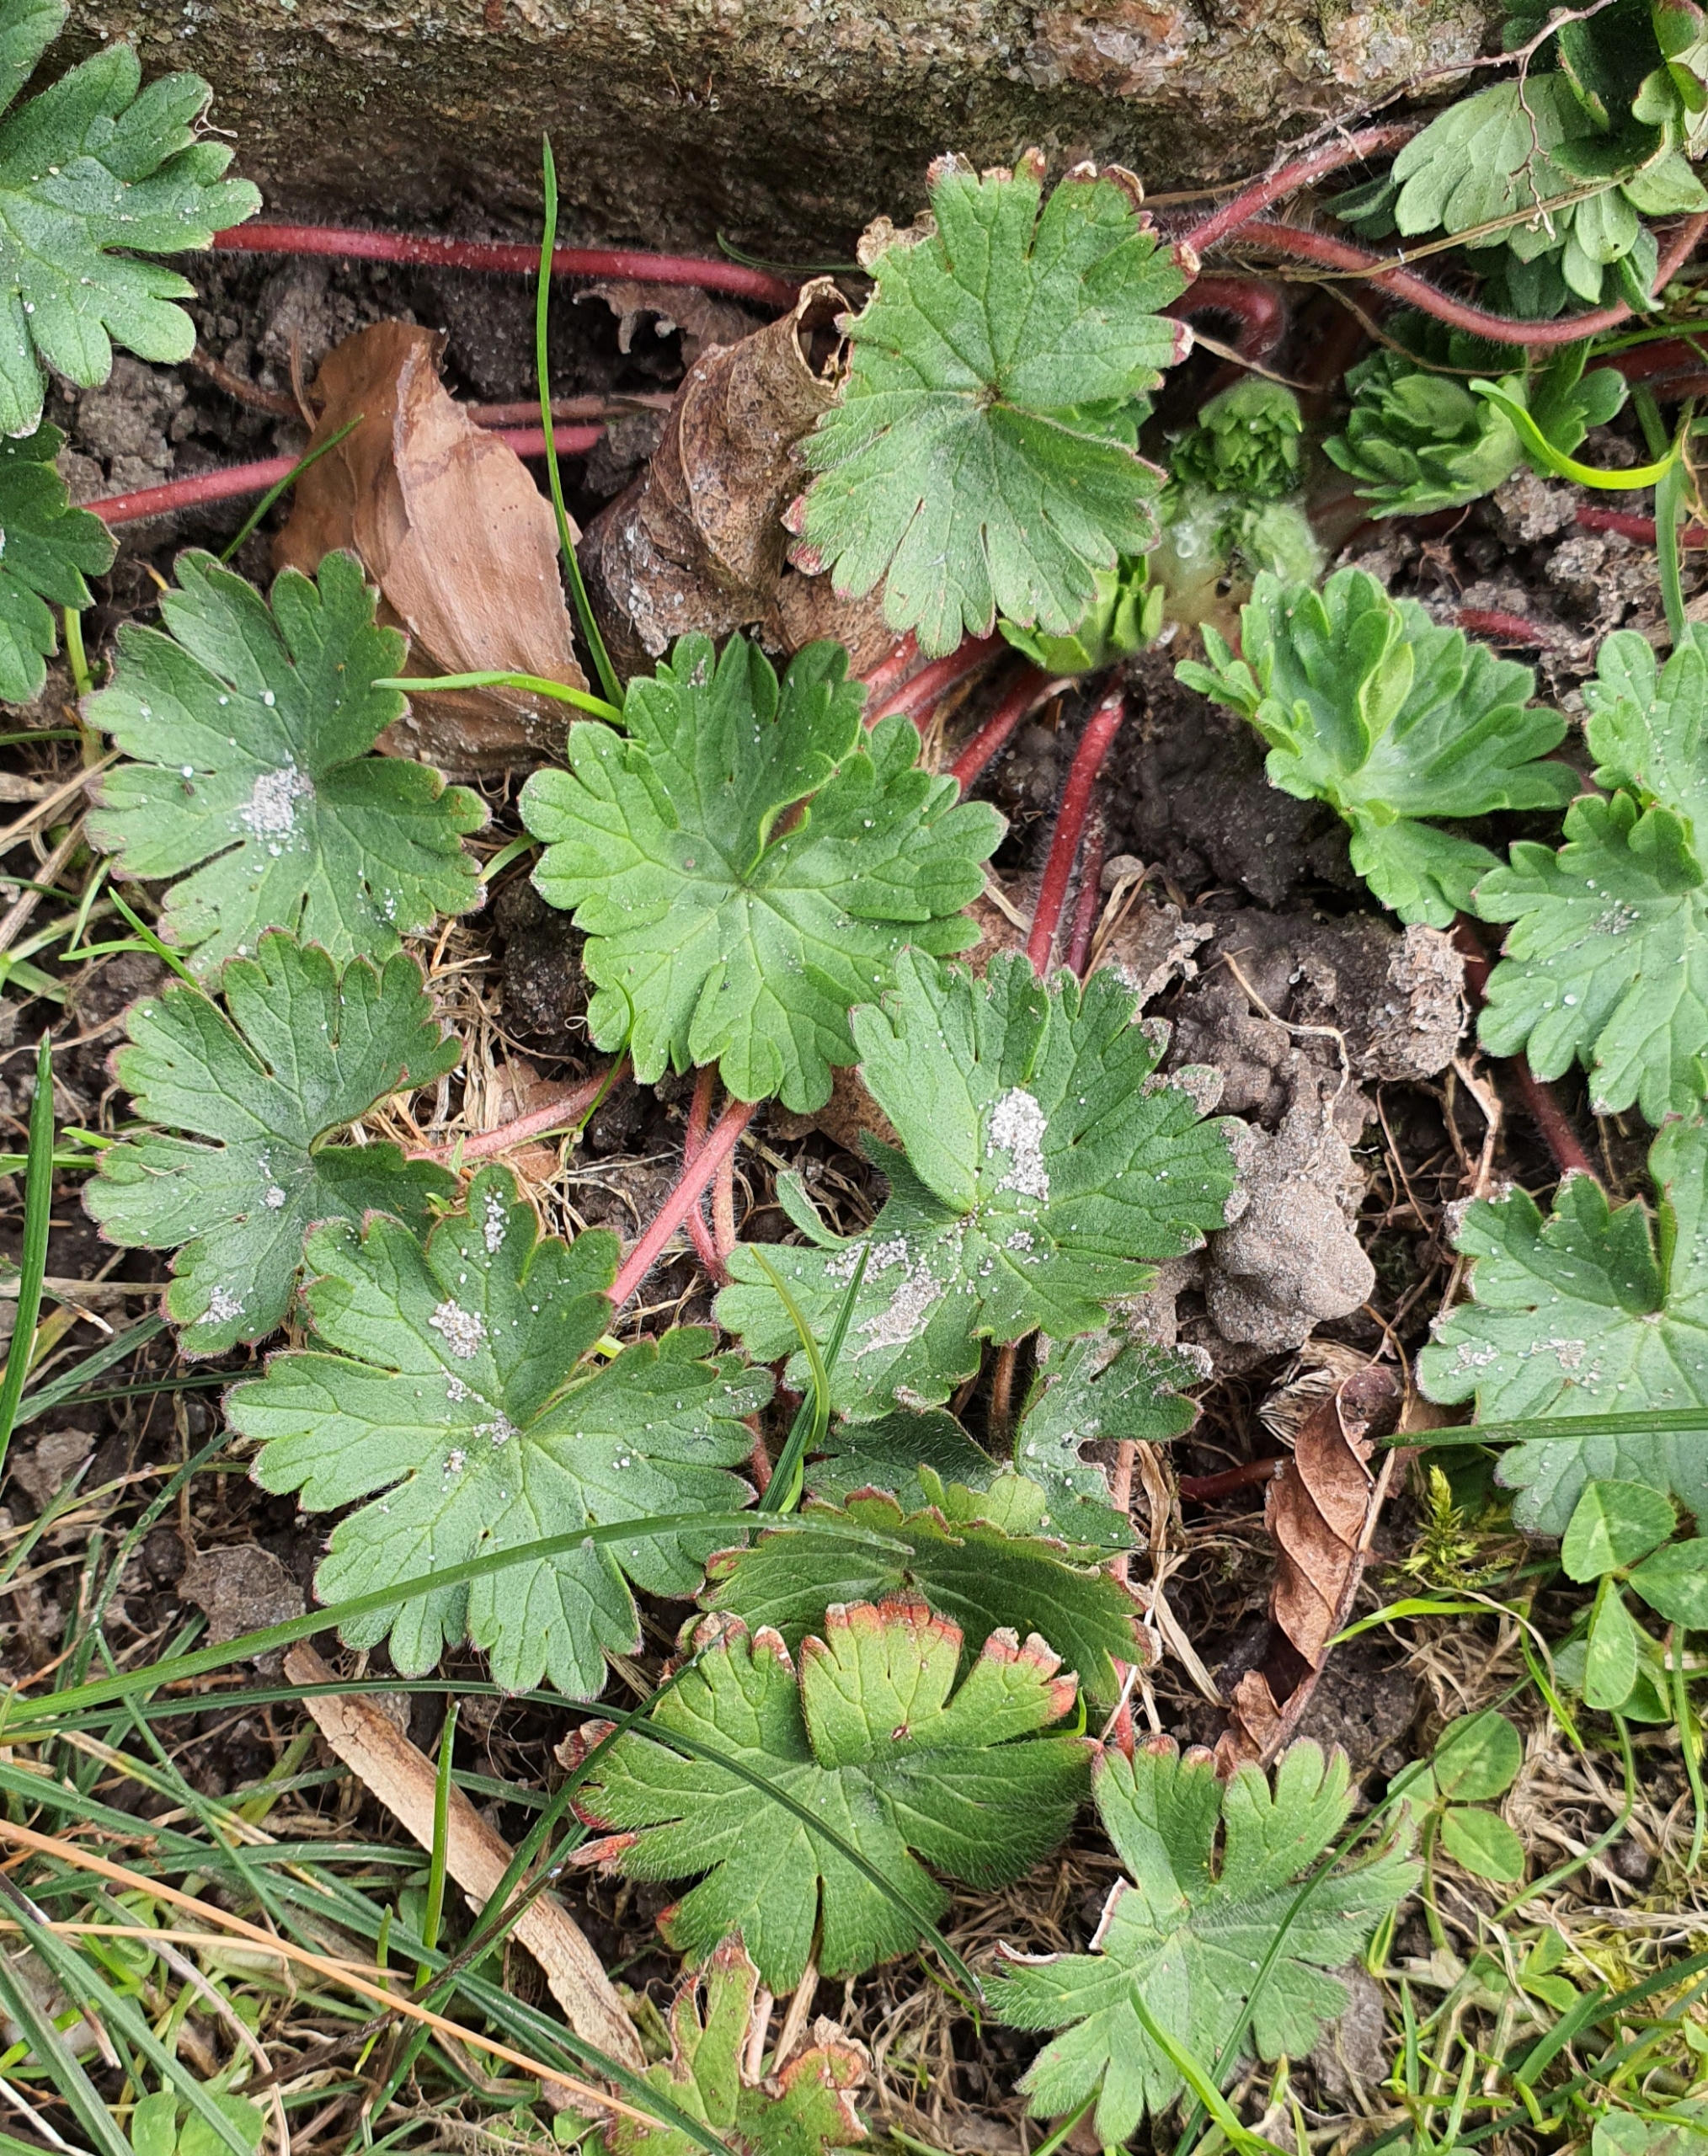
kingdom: Plantae
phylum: Tracheophyta
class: Magnoliopsida
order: Geraniales
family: Geraniaceae
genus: Geranium
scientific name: Geranium molle
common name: Blød storkenæb
